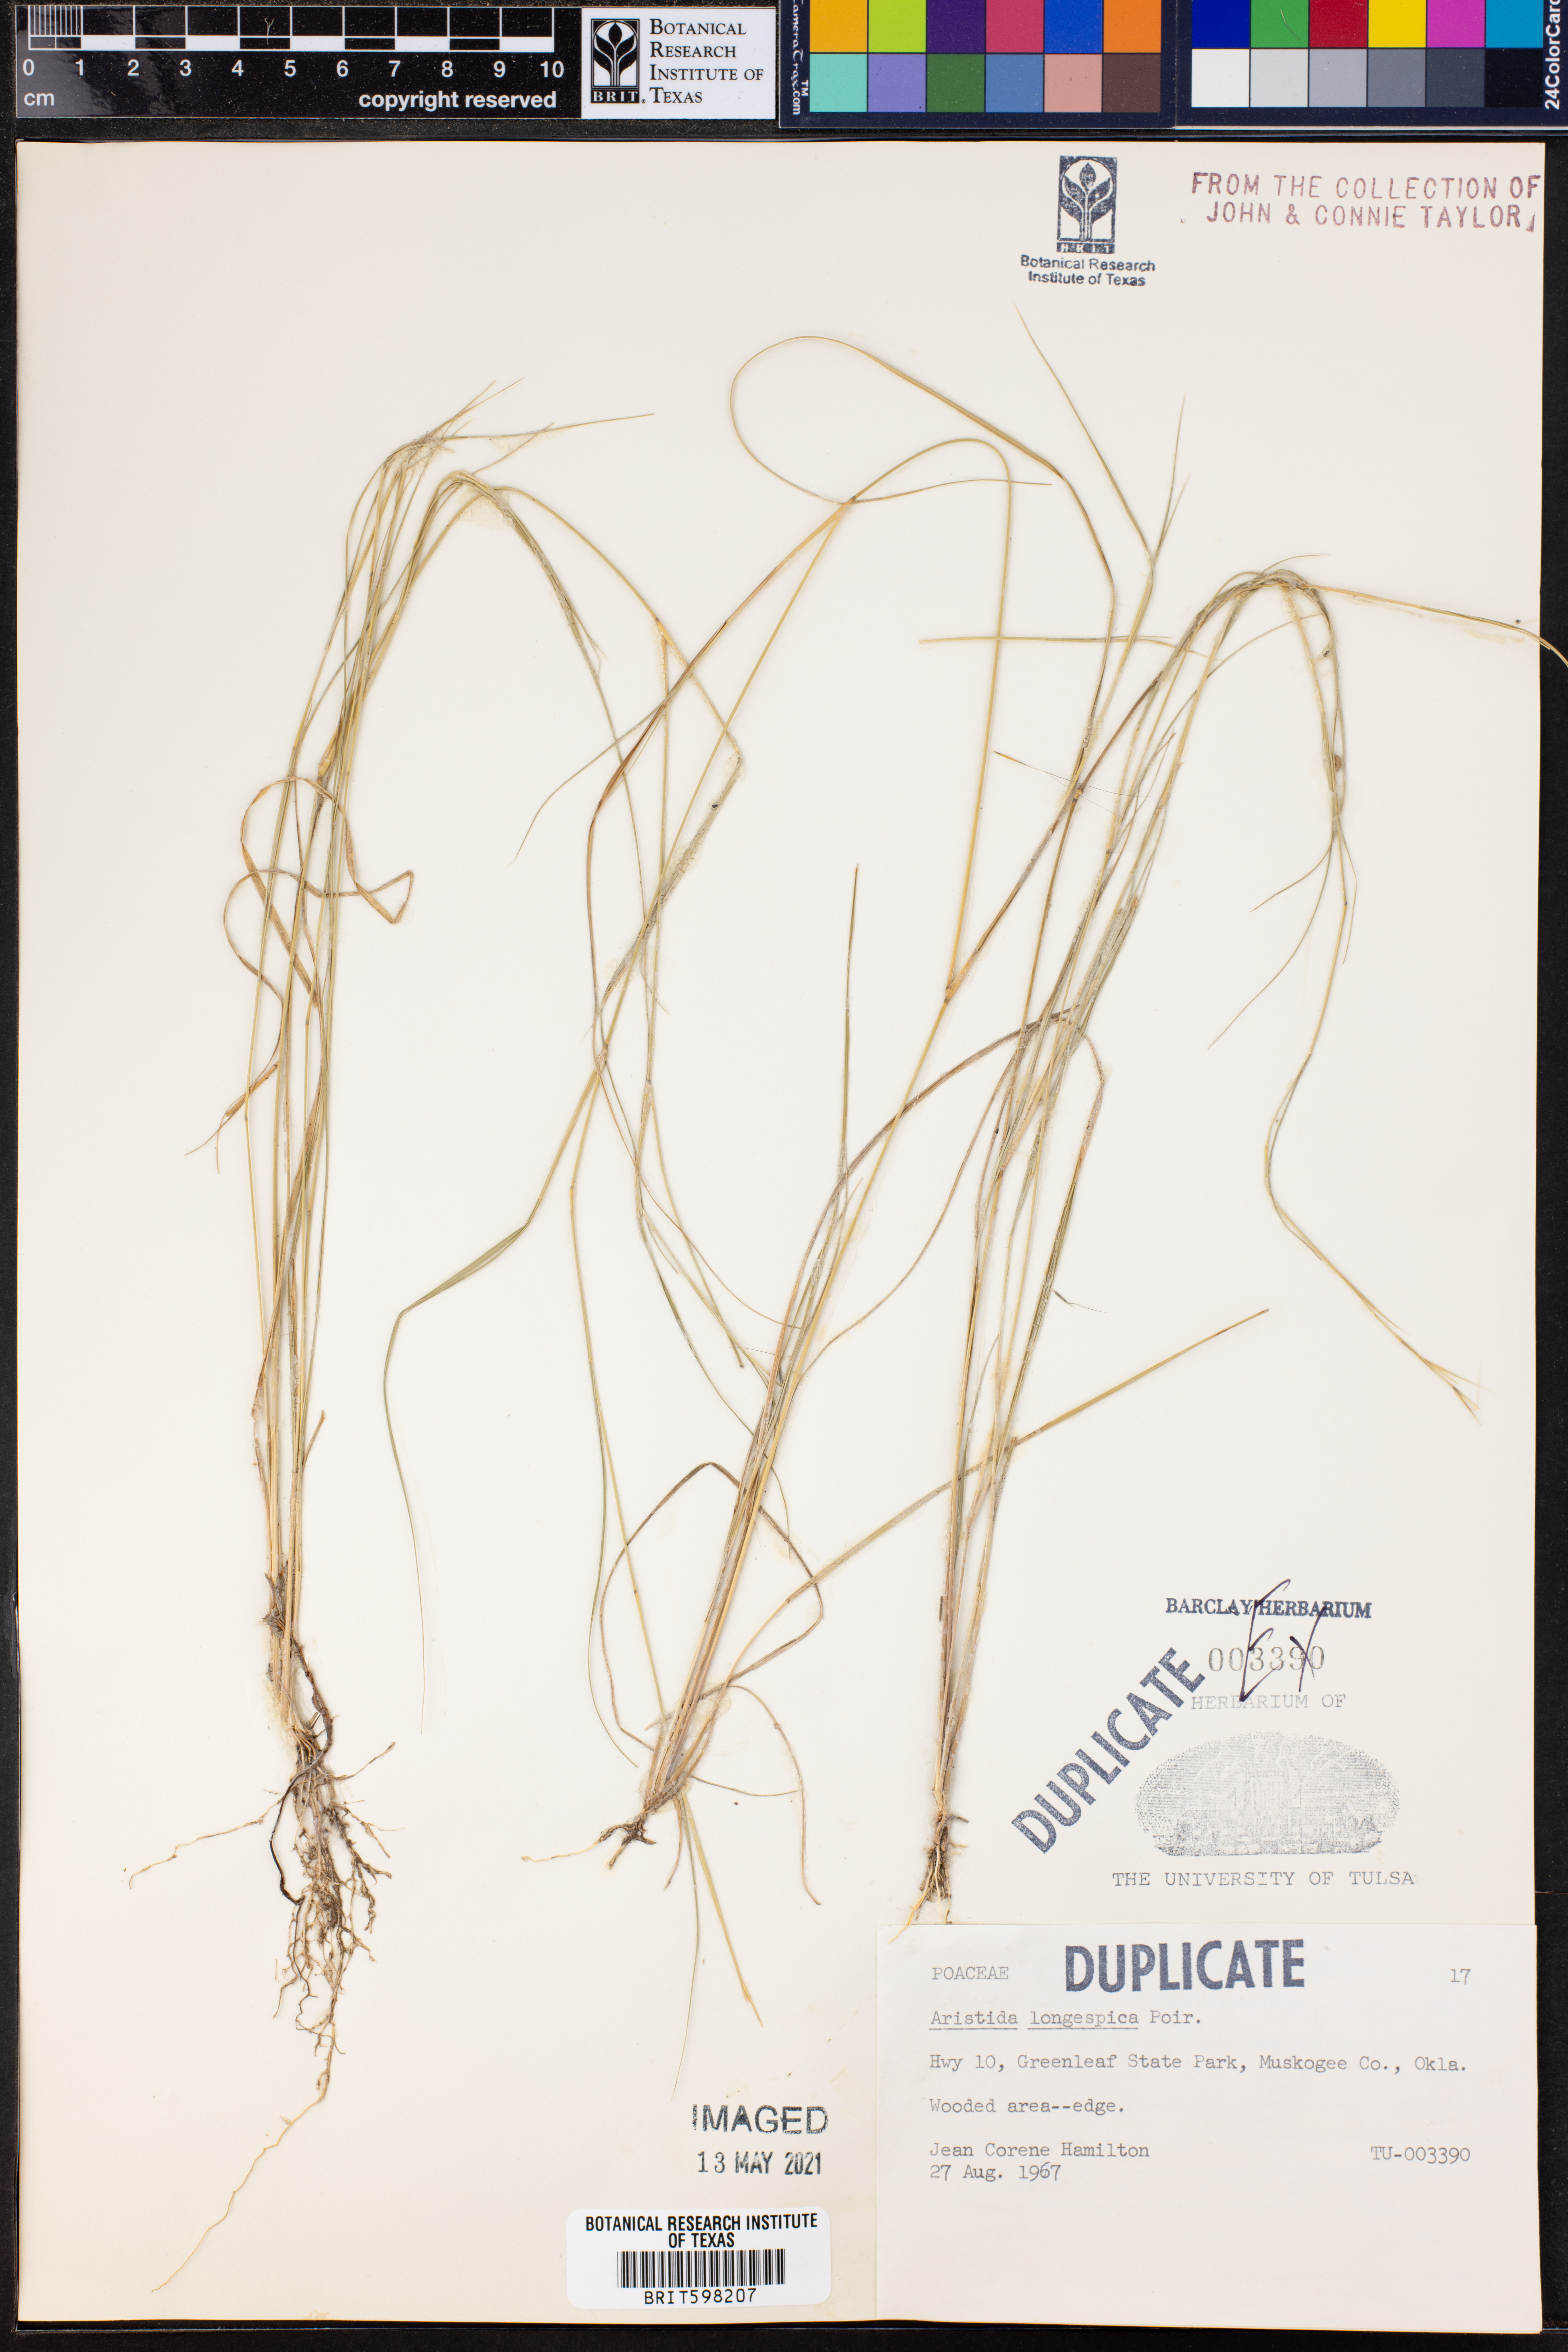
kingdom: Plantae
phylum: Tracheophyta
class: Liliopsida
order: Poales
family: Poaceae
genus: Aristida
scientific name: Aristida longespica
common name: Long-spiked triple-awned grass
